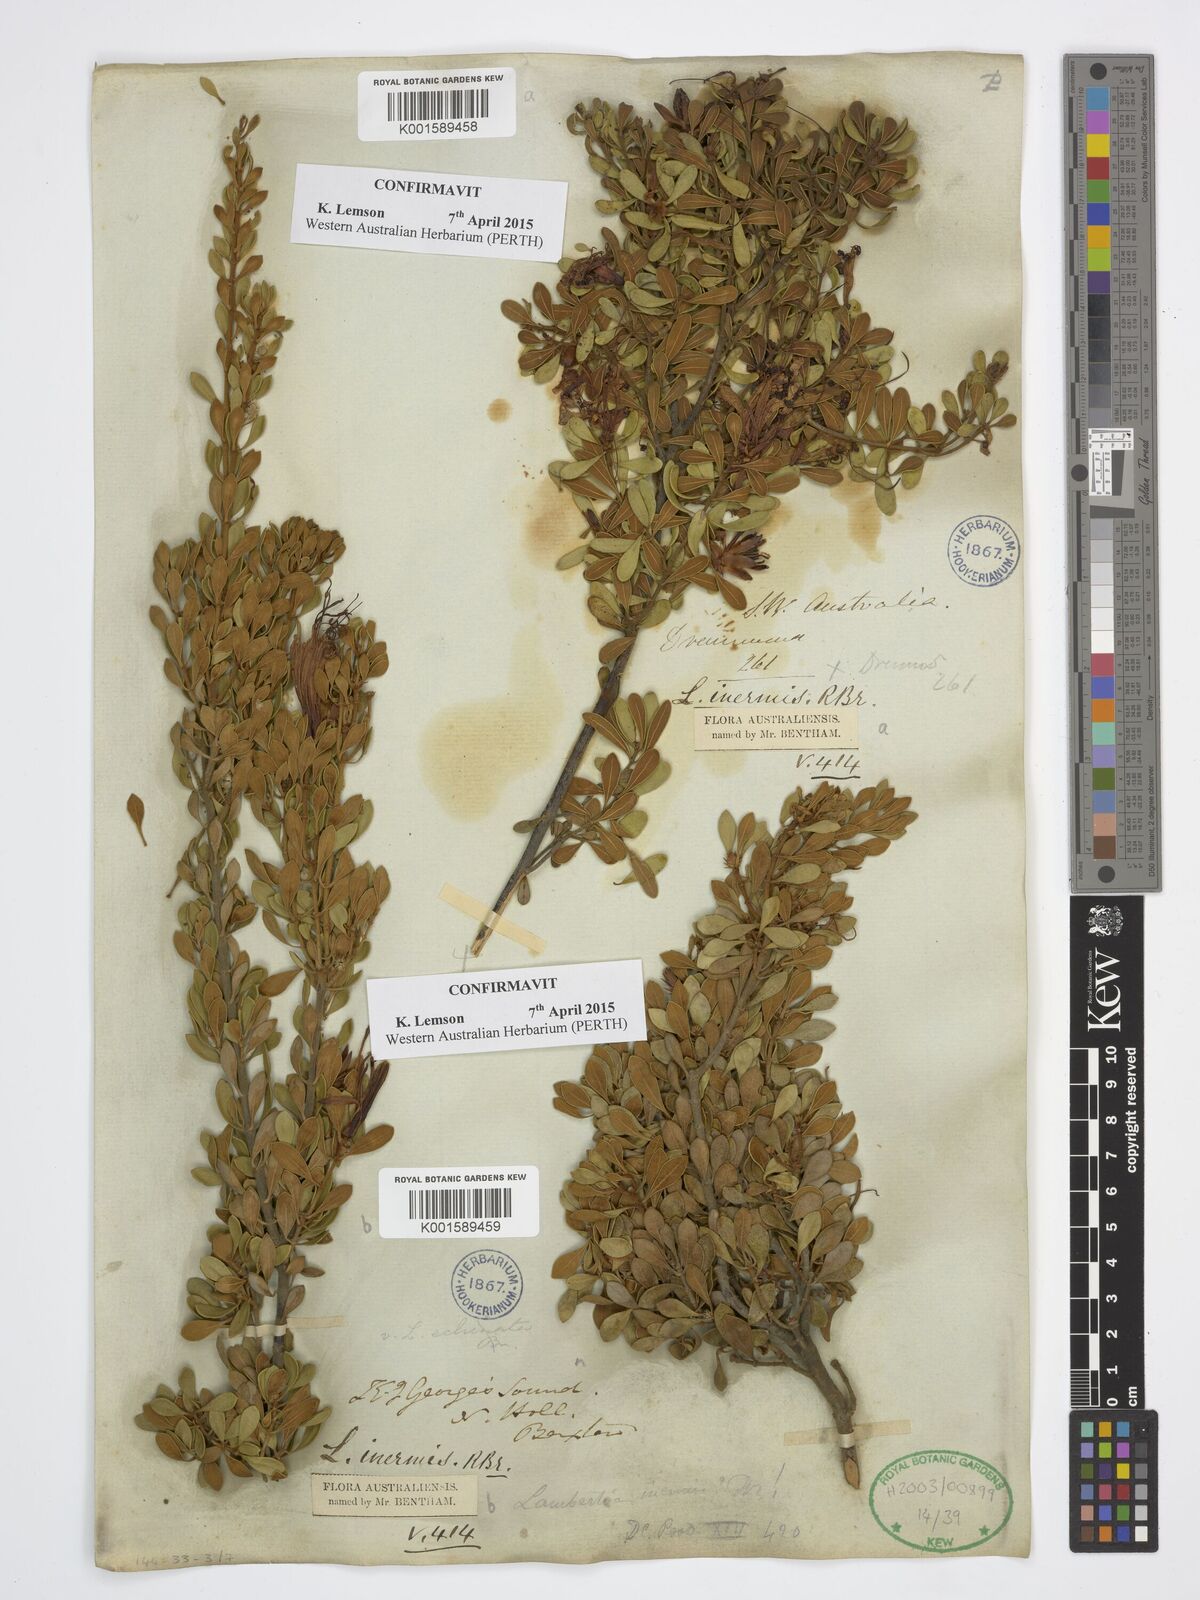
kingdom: Plantae
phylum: Tracheophyta
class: Magnoliopsida
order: Proteales
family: Proteaceae
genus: Lambertia
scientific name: Lambertia inermis
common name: Chittick
